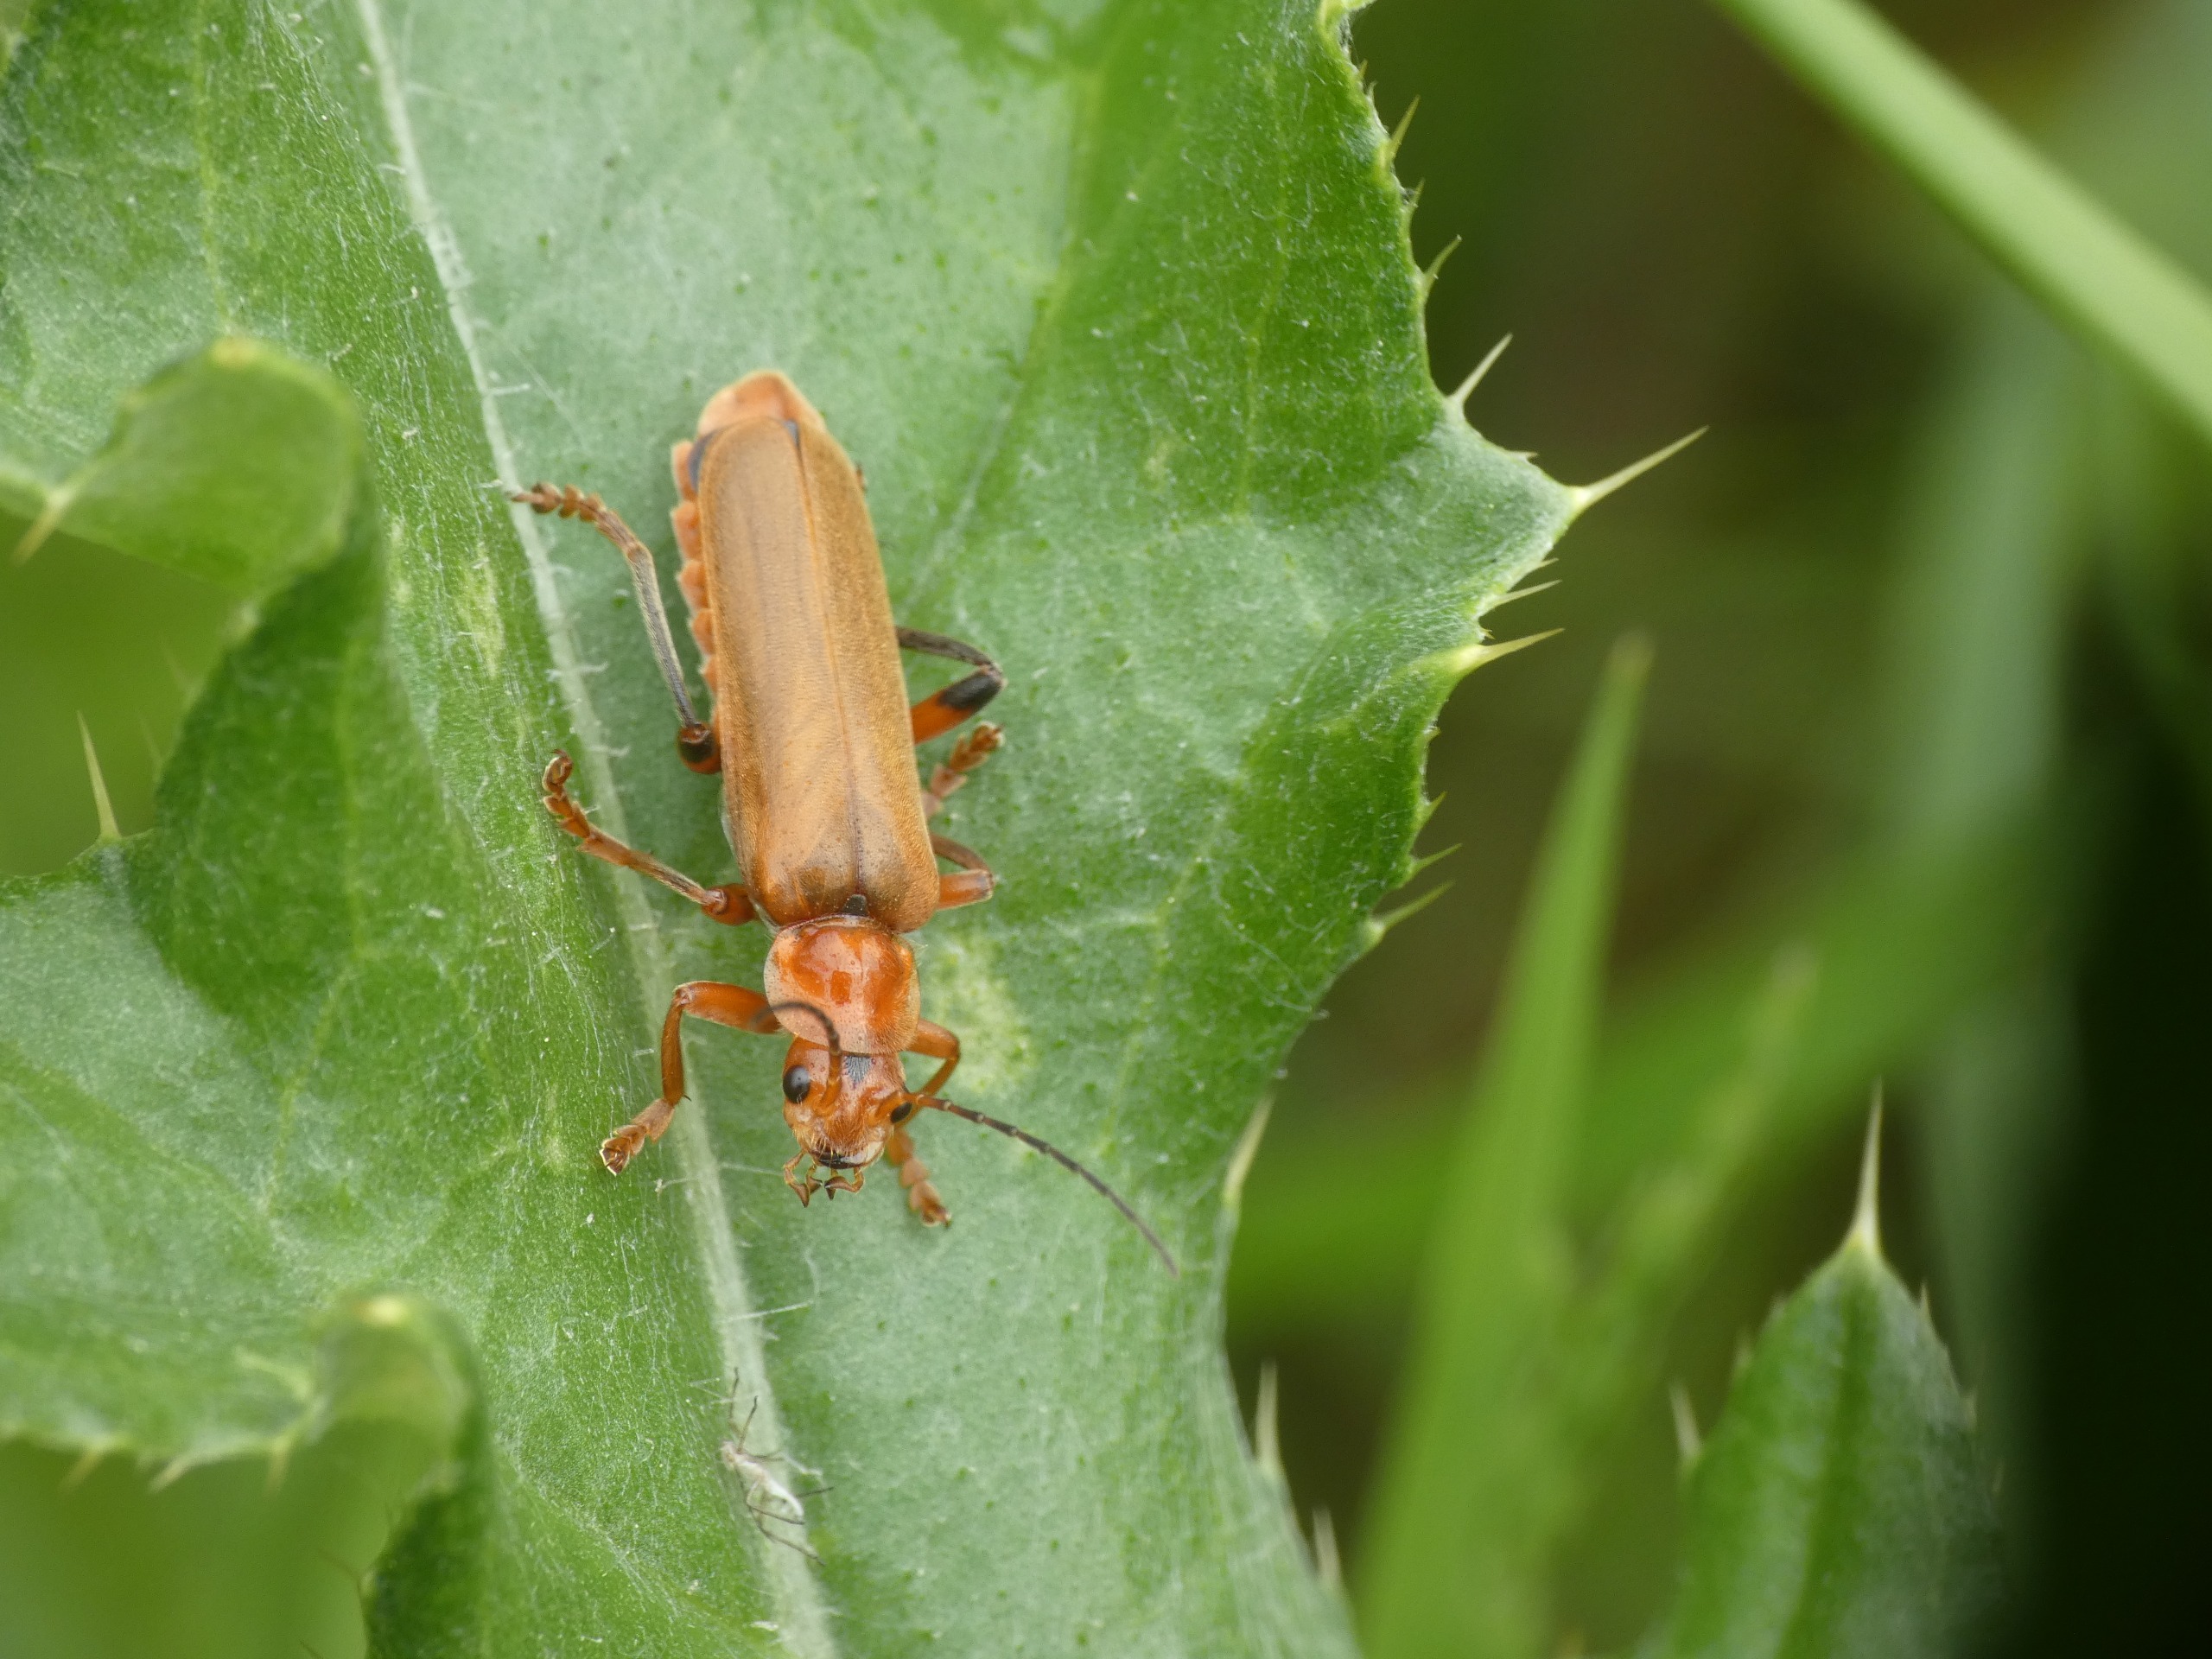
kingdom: Animalia
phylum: Arthropoda
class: Insecta
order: Coleoptera
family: Cantharidae
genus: Cantharis
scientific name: Cantharis livida
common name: Gul blødvinge
